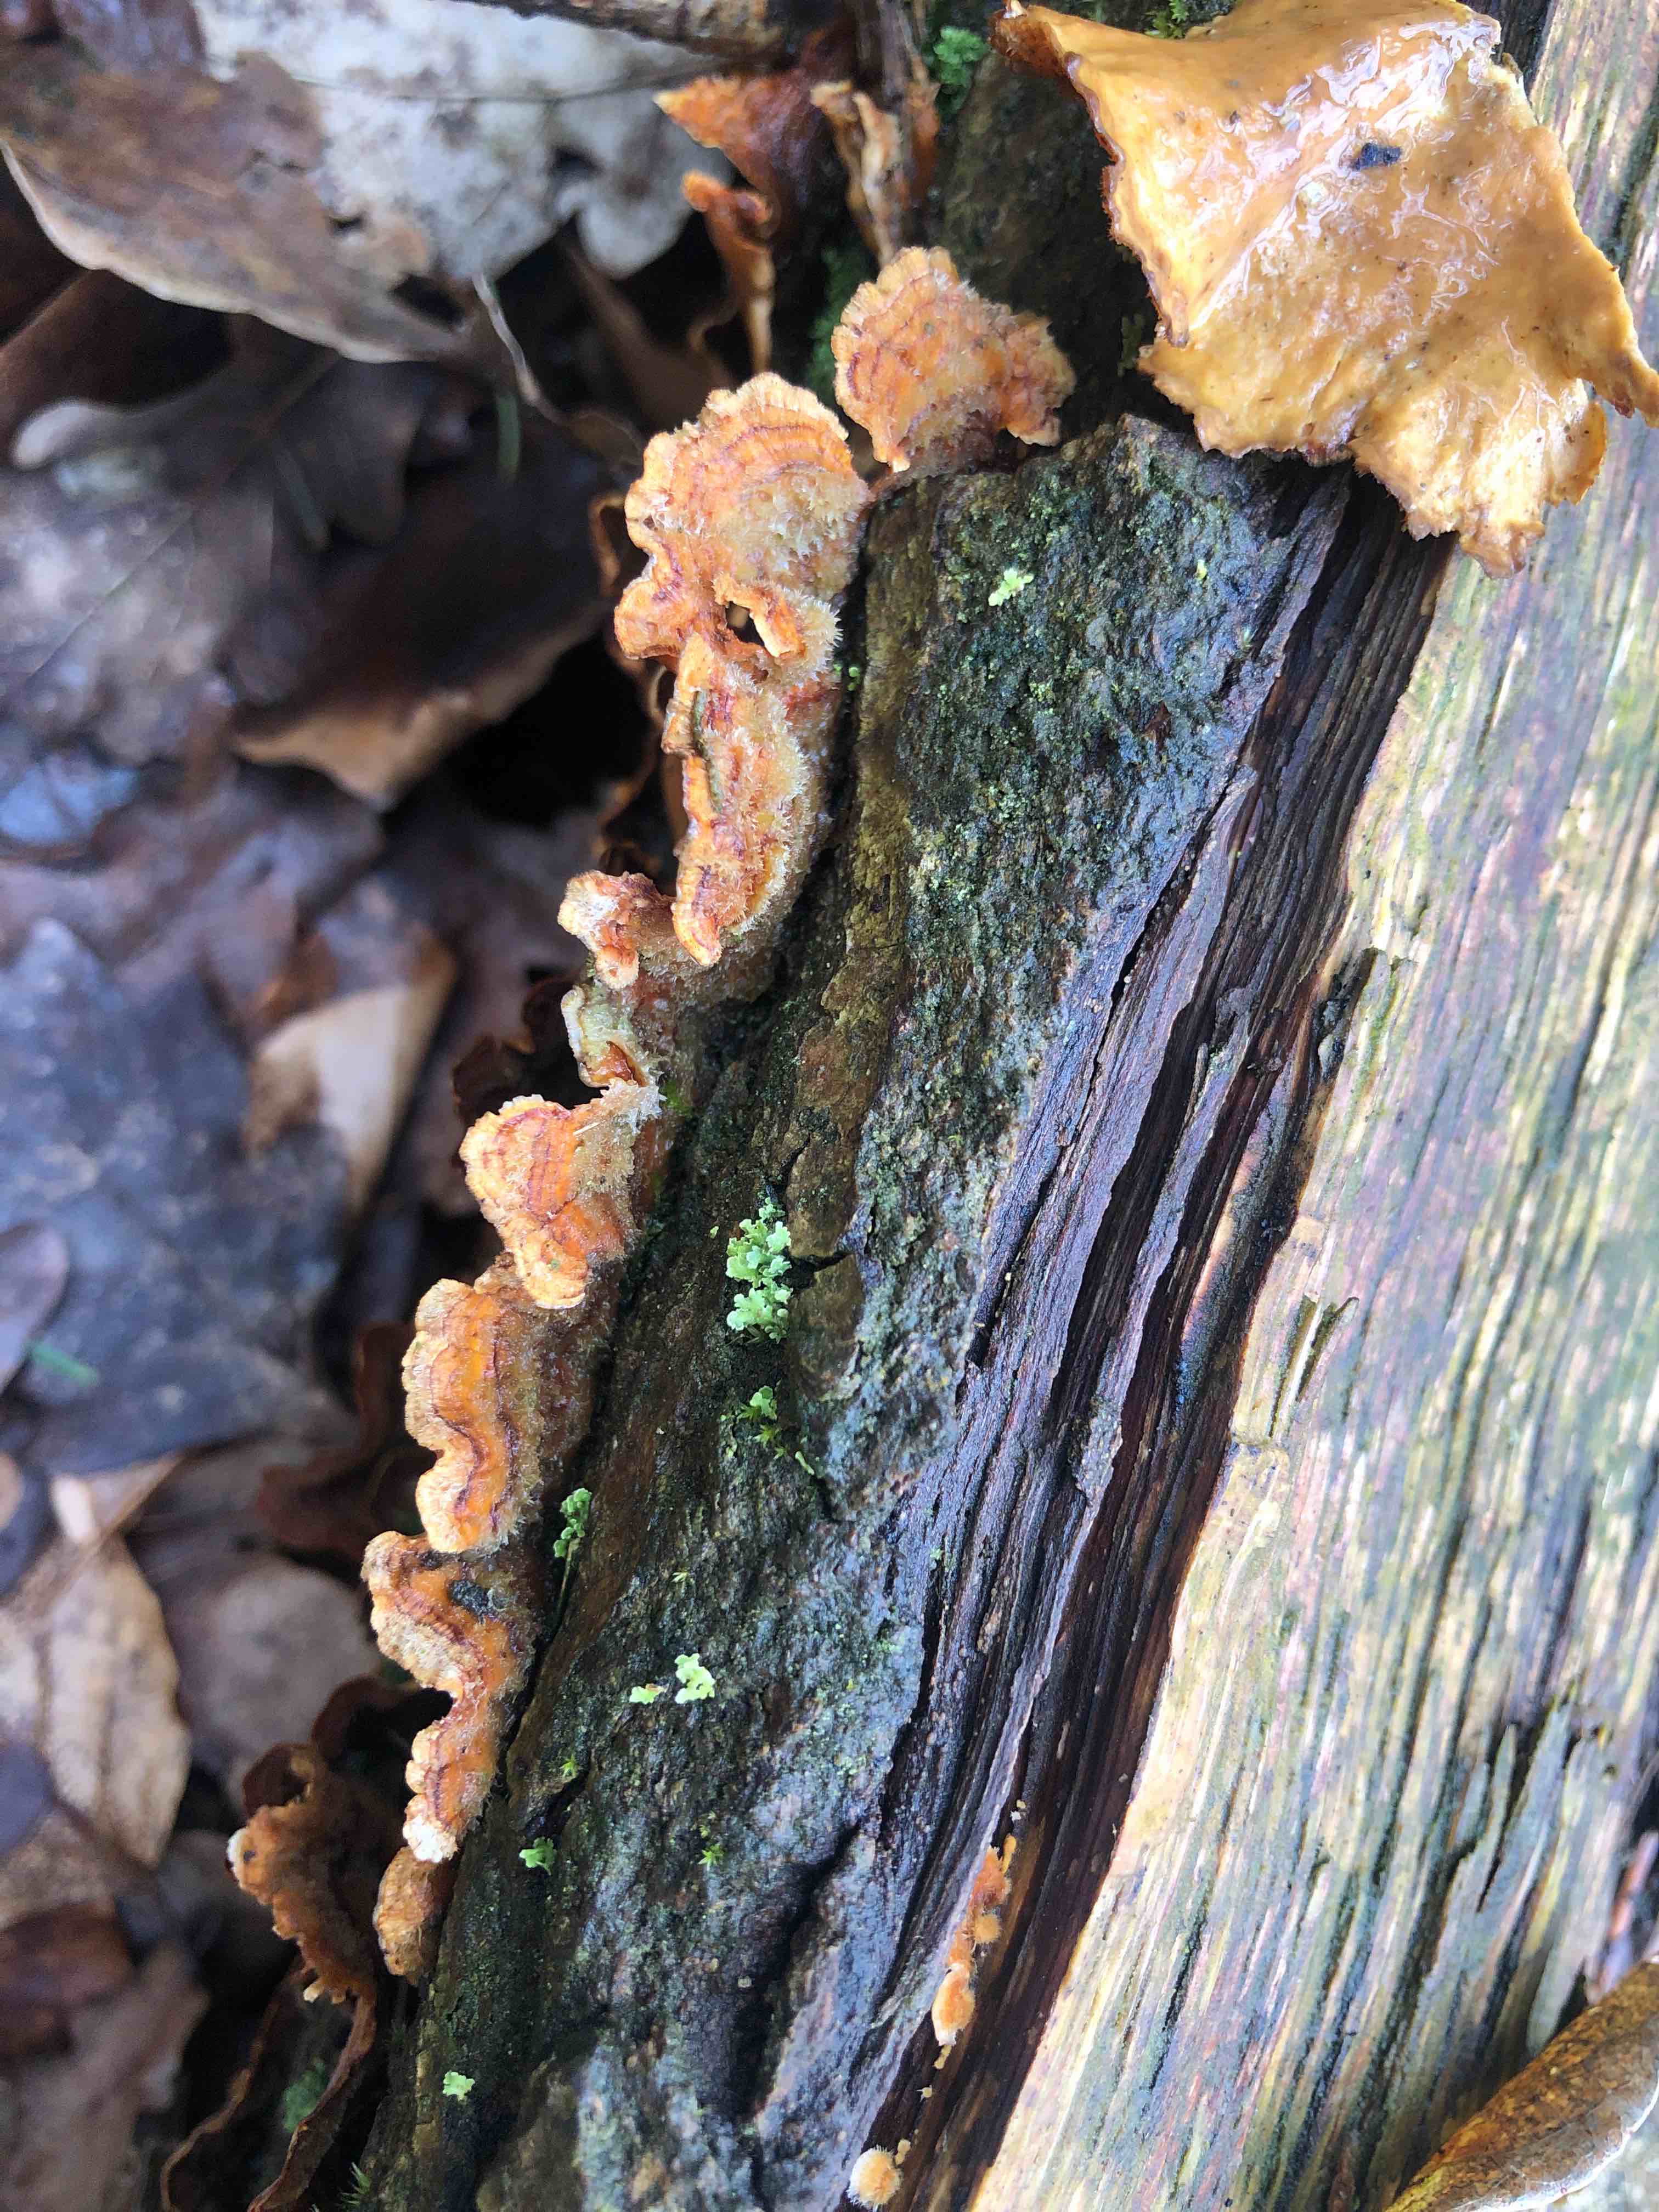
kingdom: Fungi
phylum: Basidiomycota
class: Agaricomycetes
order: Russulales
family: Stereaceae
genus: Stereum
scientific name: Stereum hirsutum
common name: håret lædersvamp
